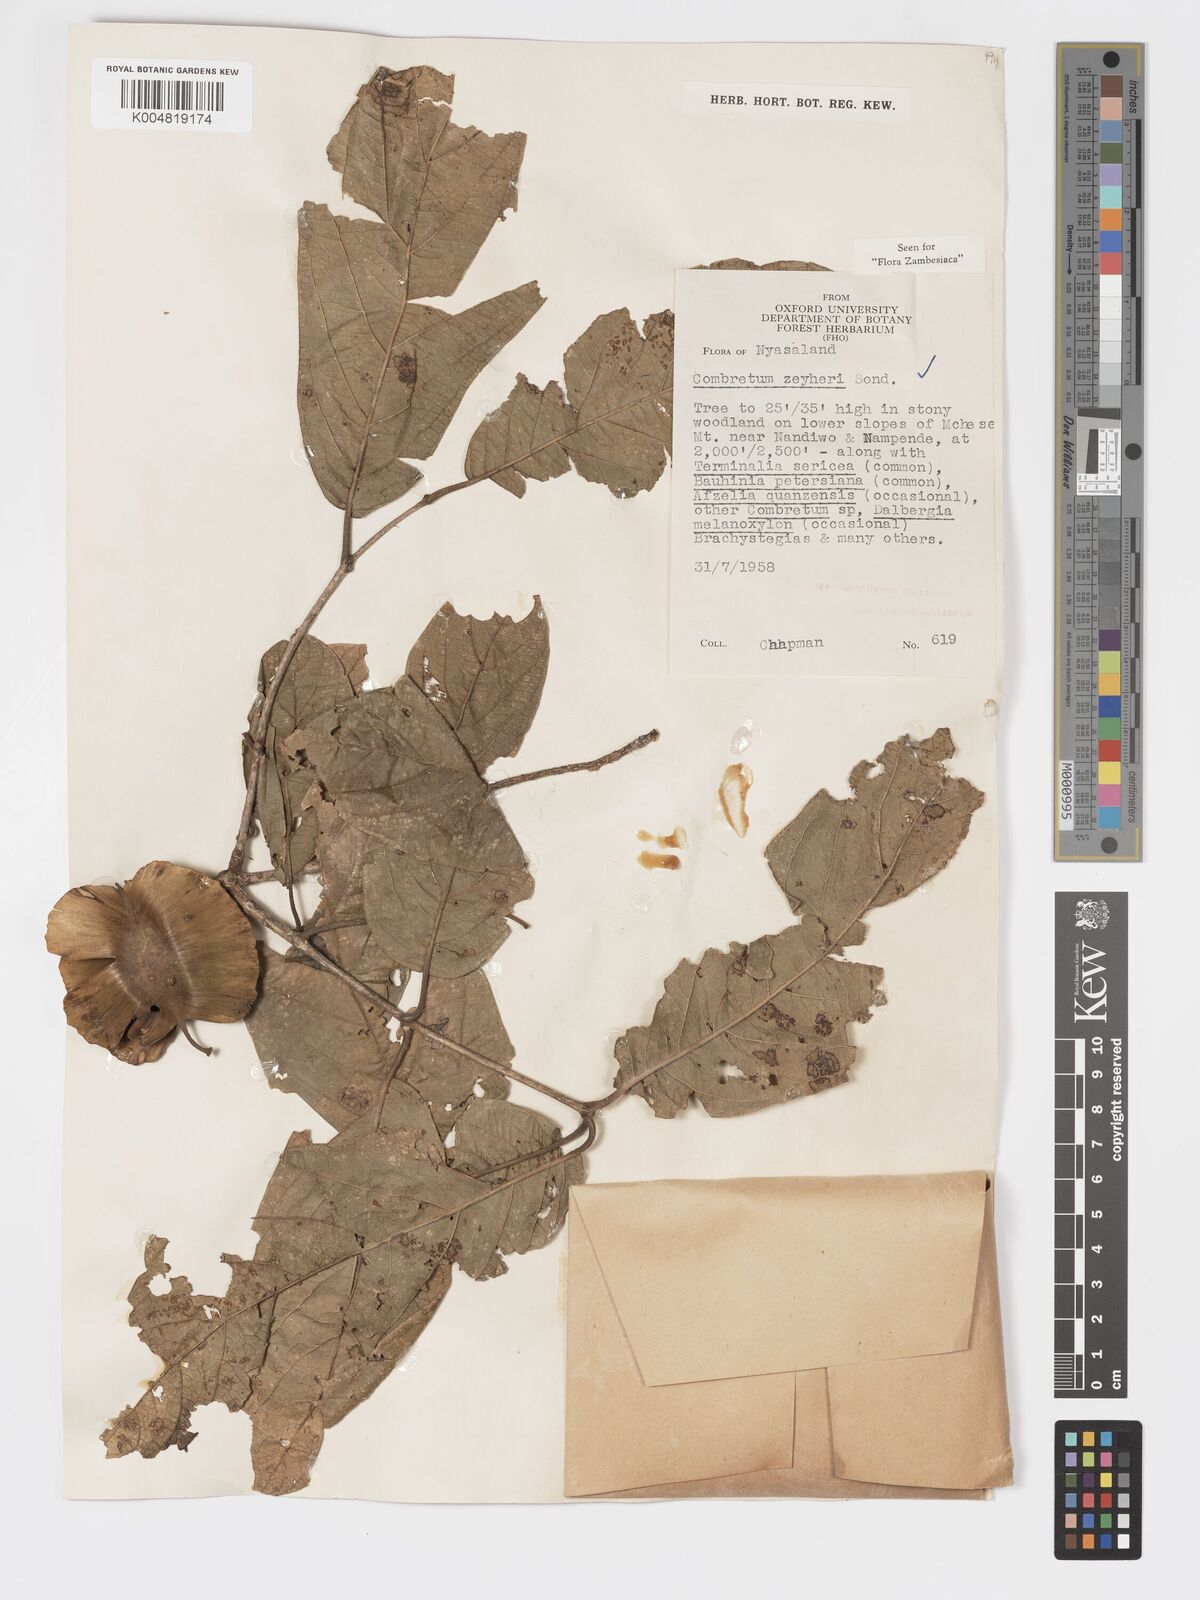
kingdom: Plantae
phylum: Tracheophyta
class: Magnoliopsida
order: Myrtales
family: Combretaceae
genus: Combretum
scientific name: Combretum zeyheri
